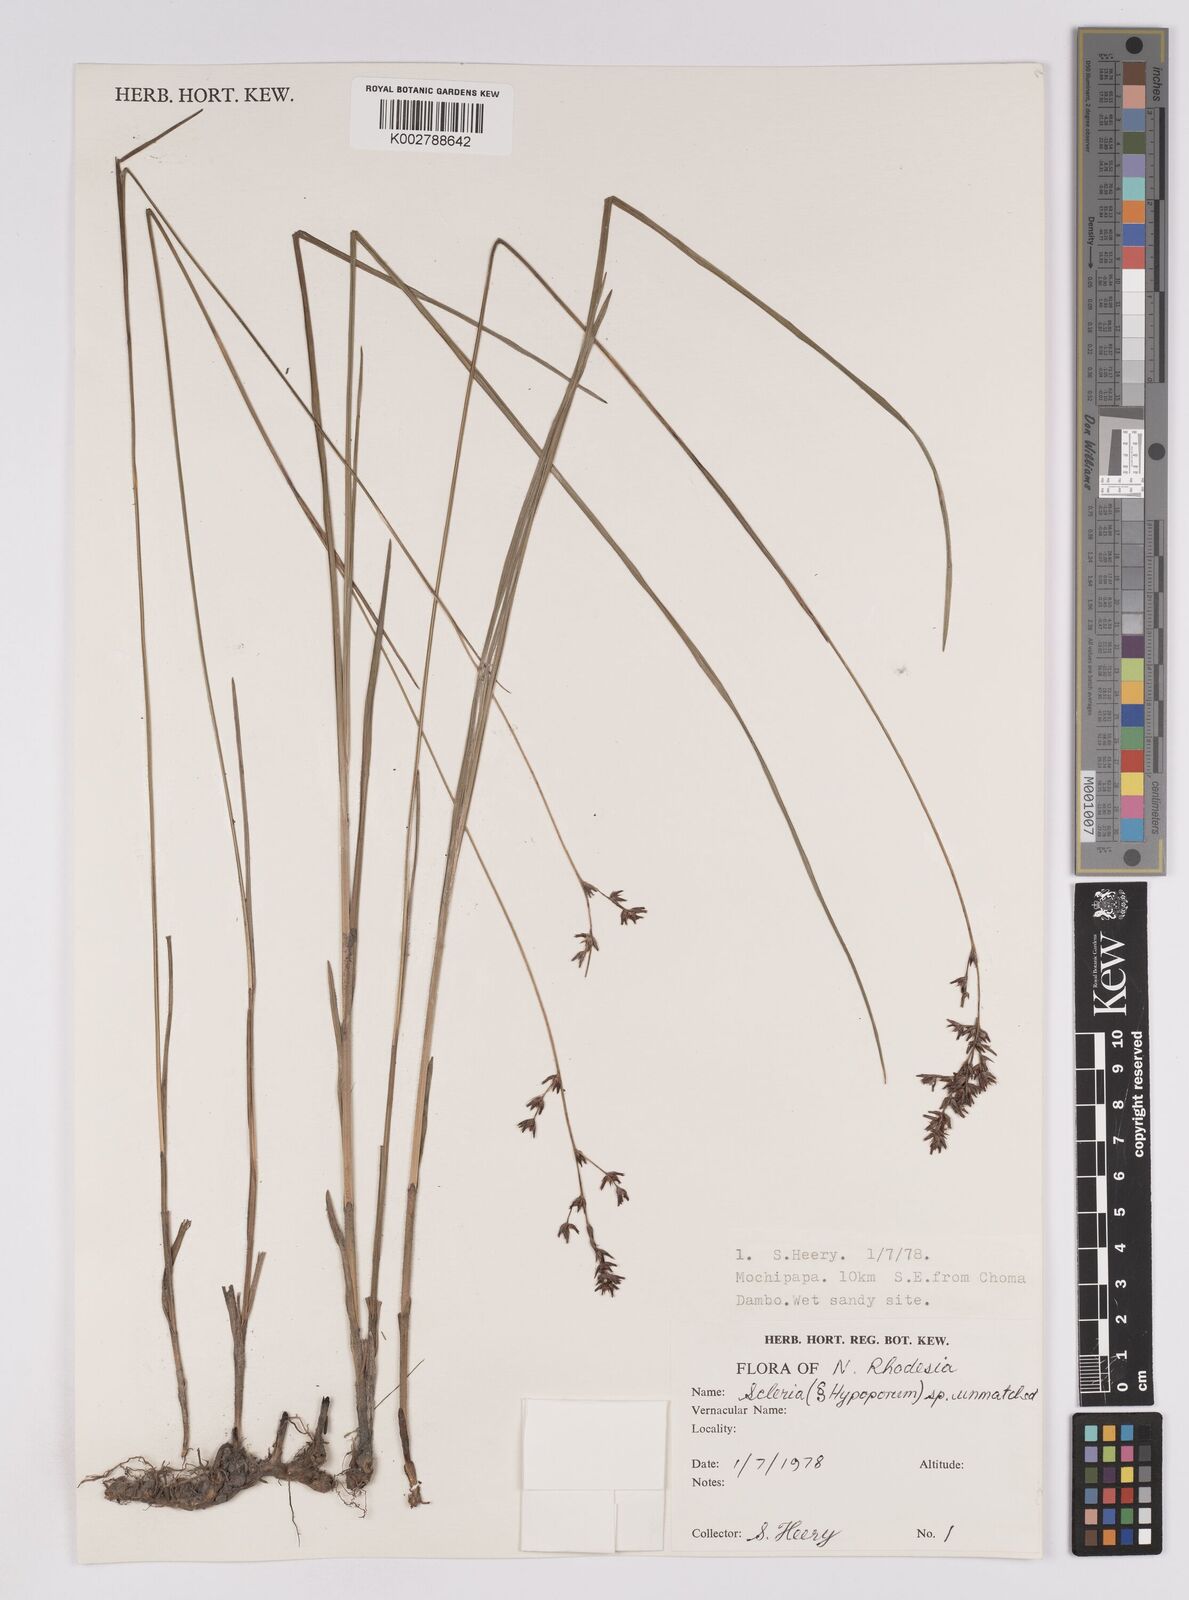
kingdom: Plantae
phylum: Tracheophyta
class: Liliopsida
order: Poales
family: Cyperaceae
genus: Scleria
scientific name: Scleria
